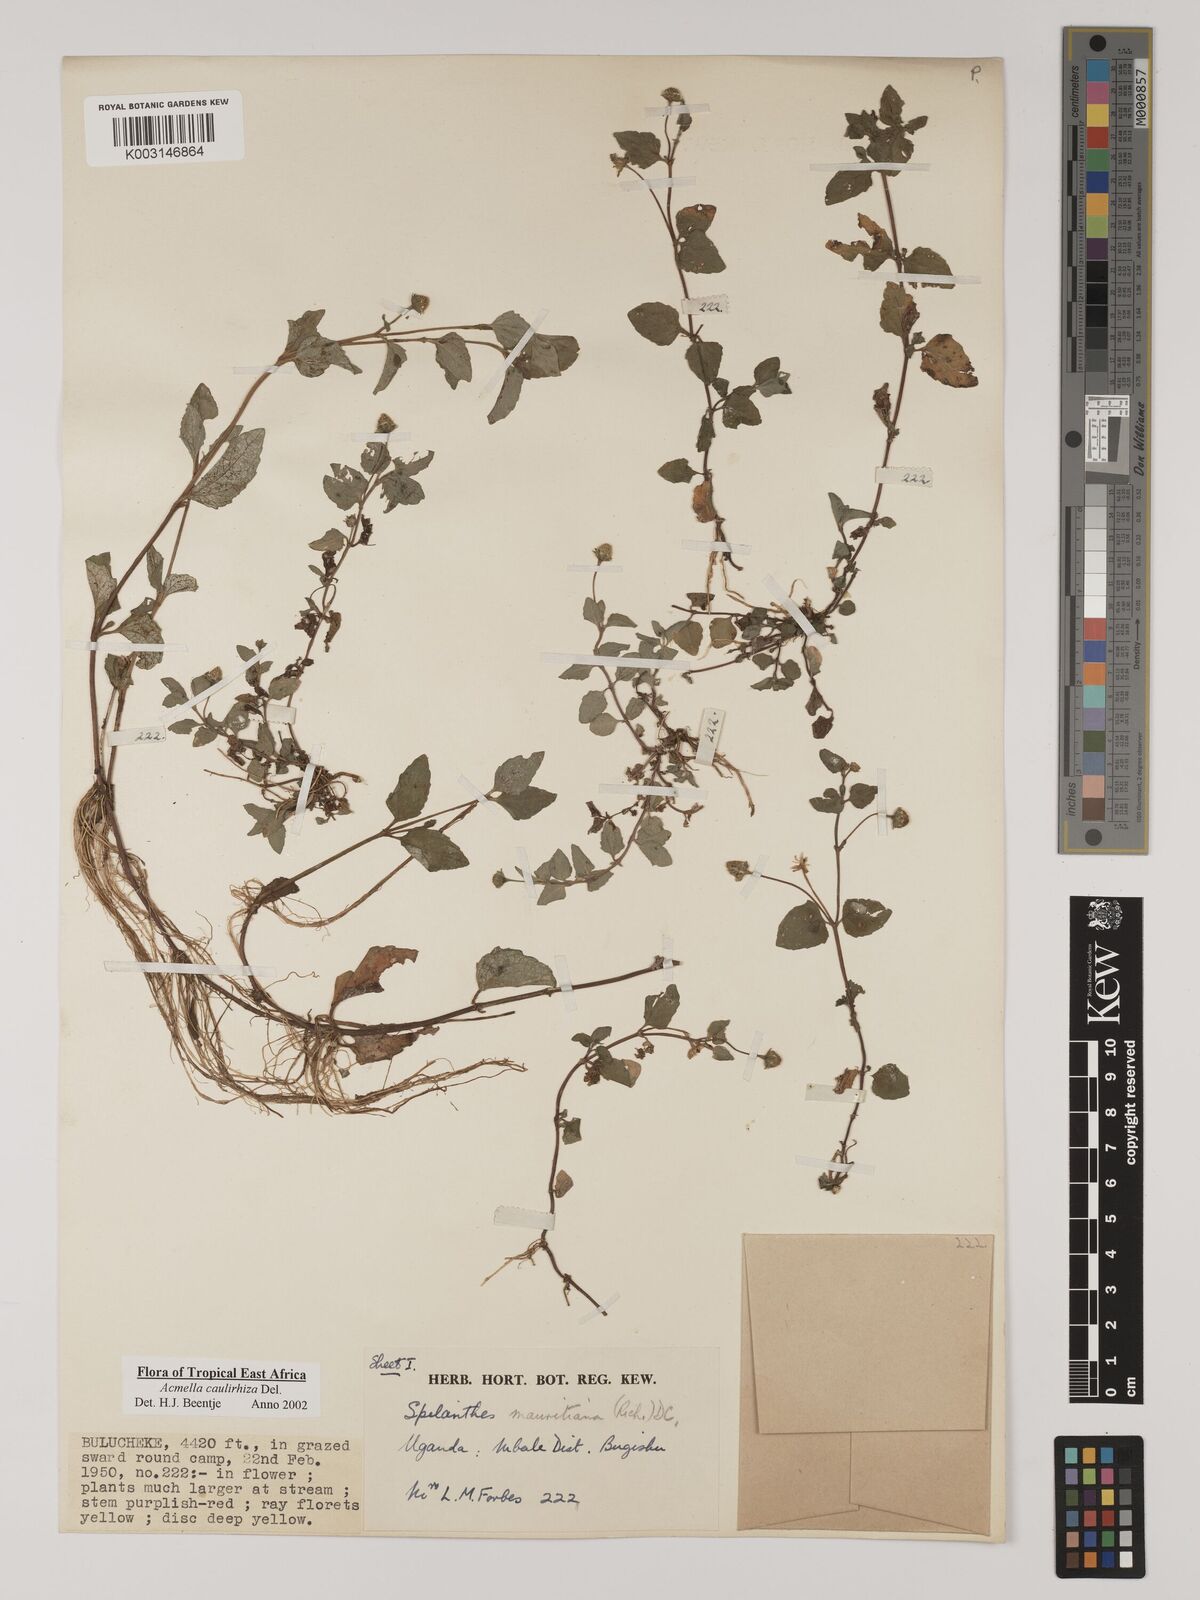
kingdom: Plantae
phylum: Tracheophyta
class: Magnoliopsida
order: Asterales
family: Asteraceae
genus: Acmella
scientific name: Acmella caulirhiza
